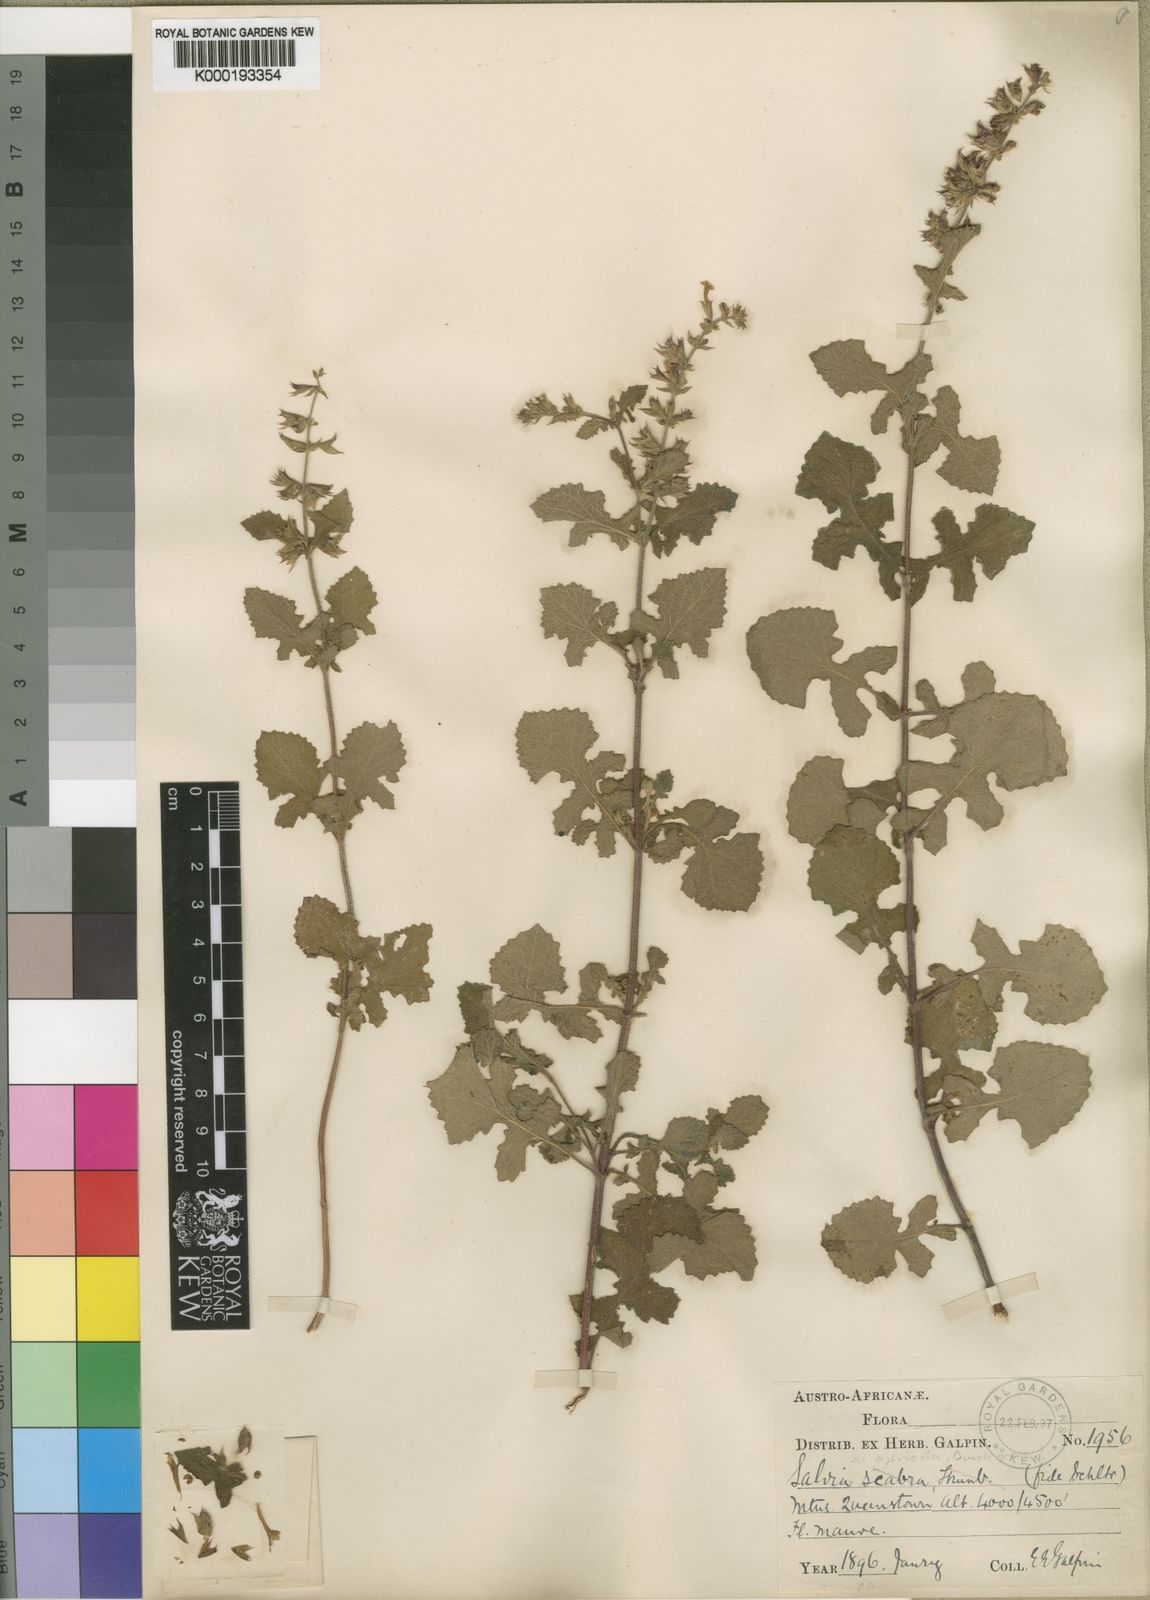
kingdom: Plantae
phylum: Tracheophyta
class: Magnoliopsida
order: Lamiales
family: Lamiaceae
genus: Salvia
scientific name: Salvia aurita
